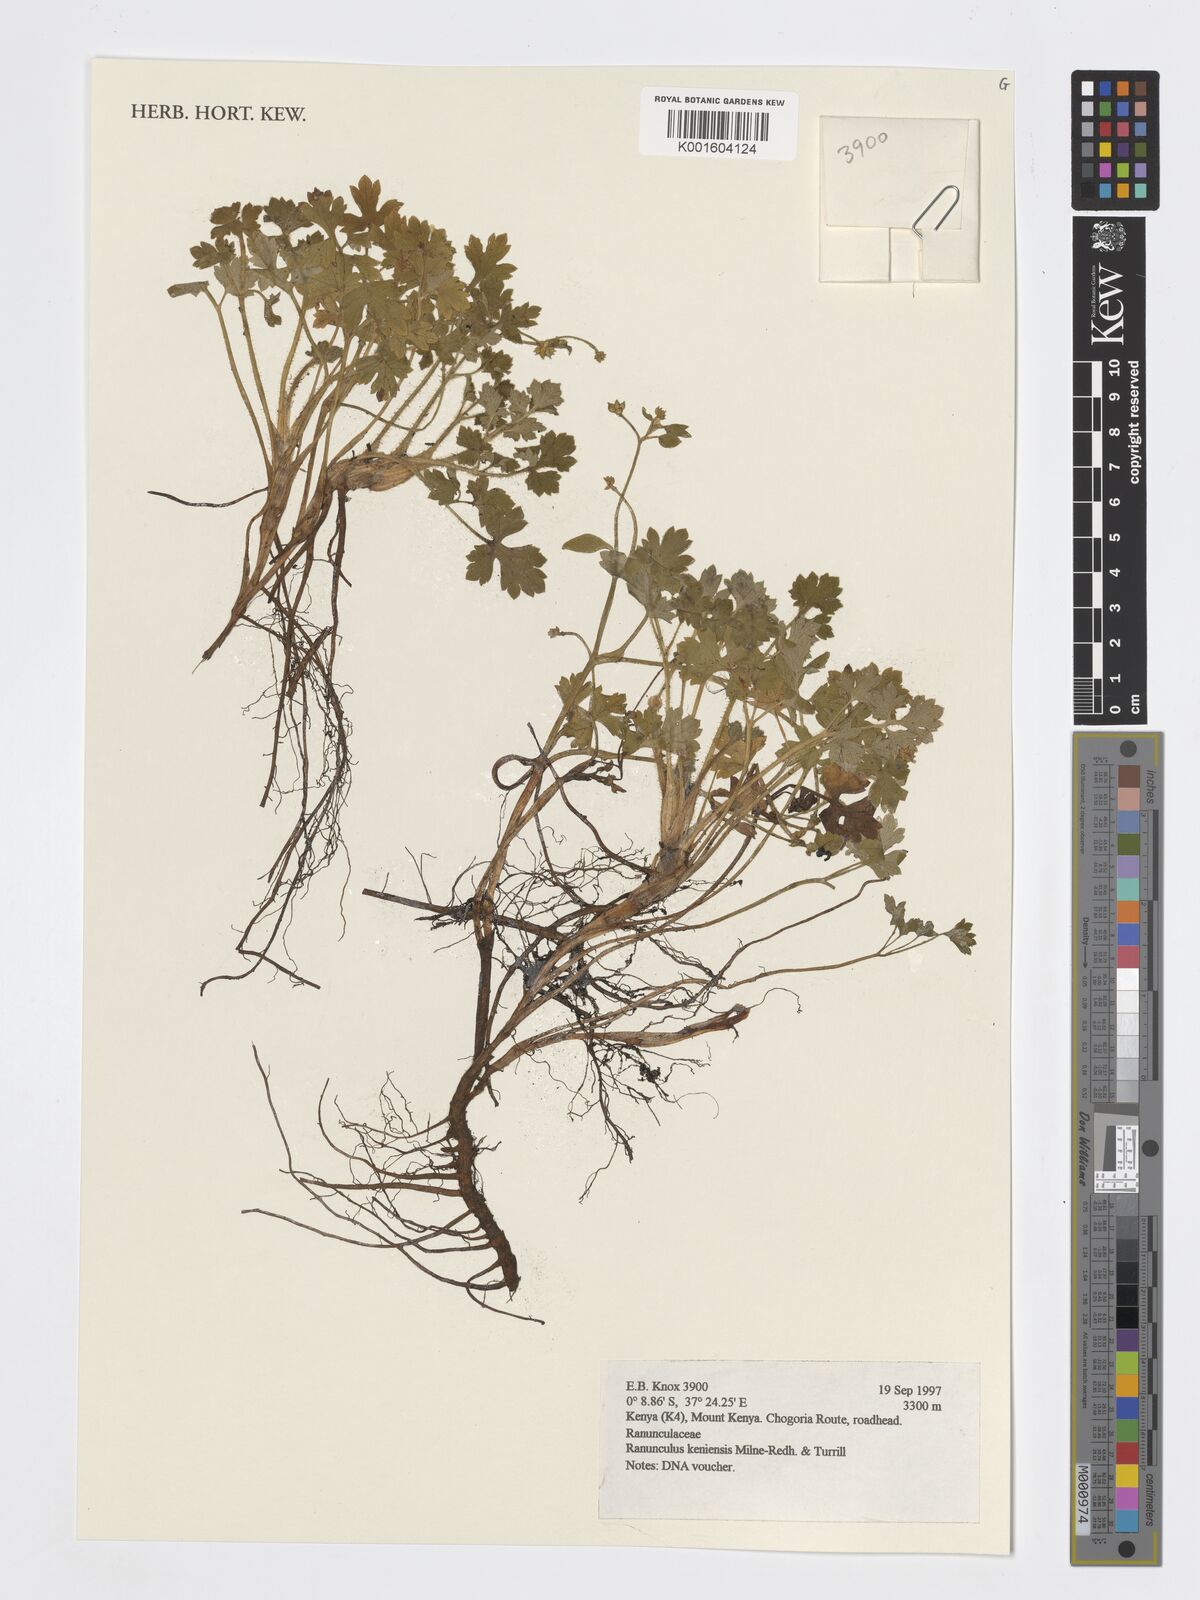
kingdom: Plantae
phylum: Tracheophyta
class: Magnoliopsida
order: Ranunculales
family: Ranunculaceae
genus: Ranunculus
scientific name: Ranunculus aberdaricus
